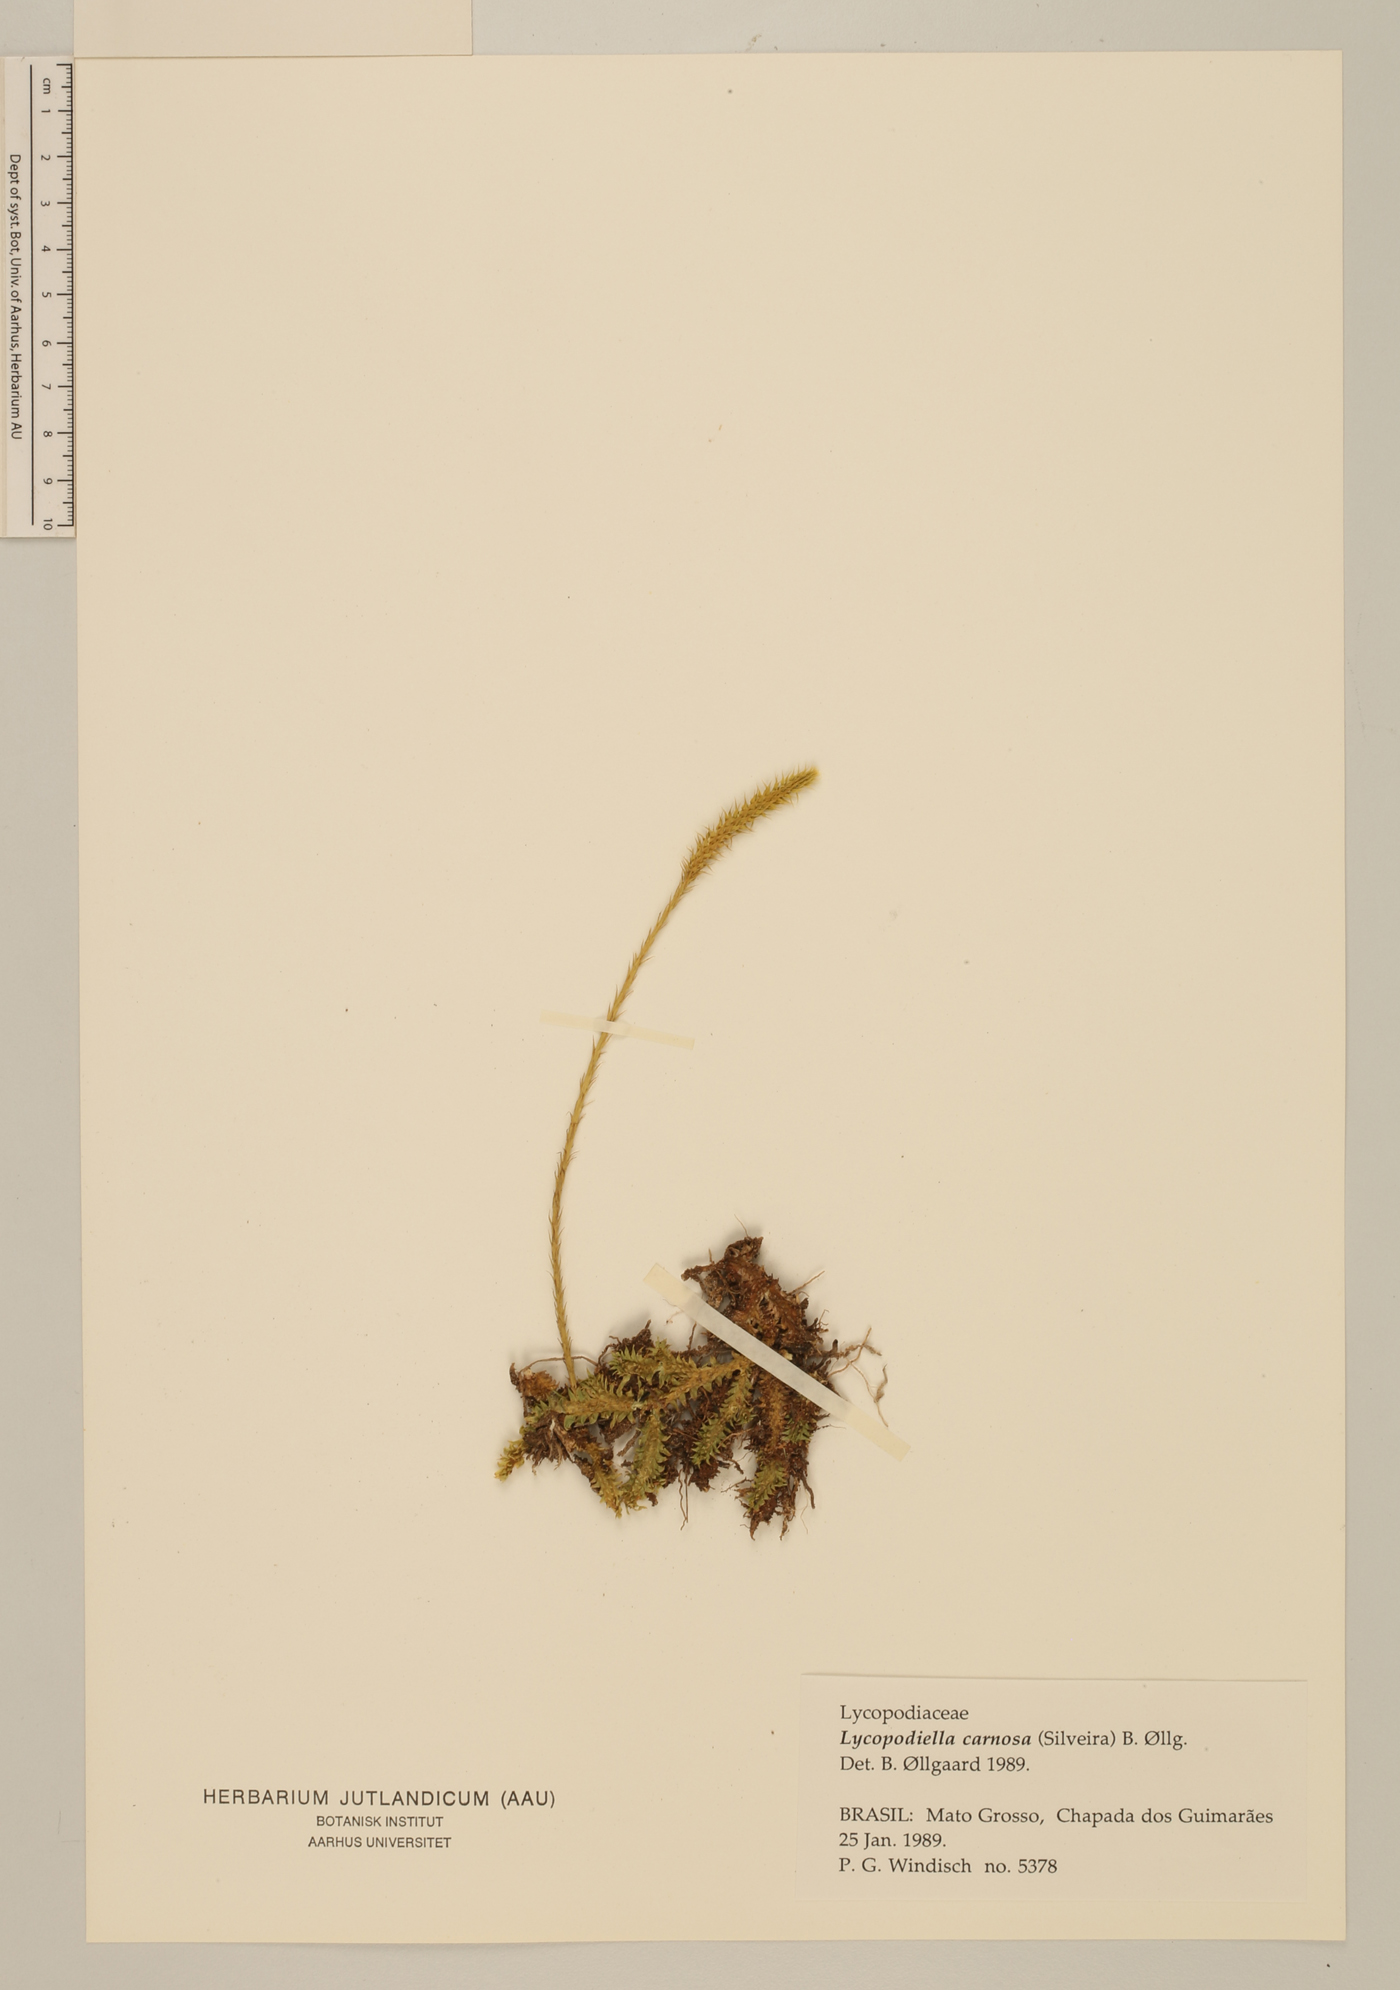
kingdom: Plantae
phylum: Tracheophyta
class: Lycopodiopsida
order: Lycopodiales
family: Lycopodiaceae
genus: Pseudolycopodiella
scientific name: Pseudolycopodiella carnosa
